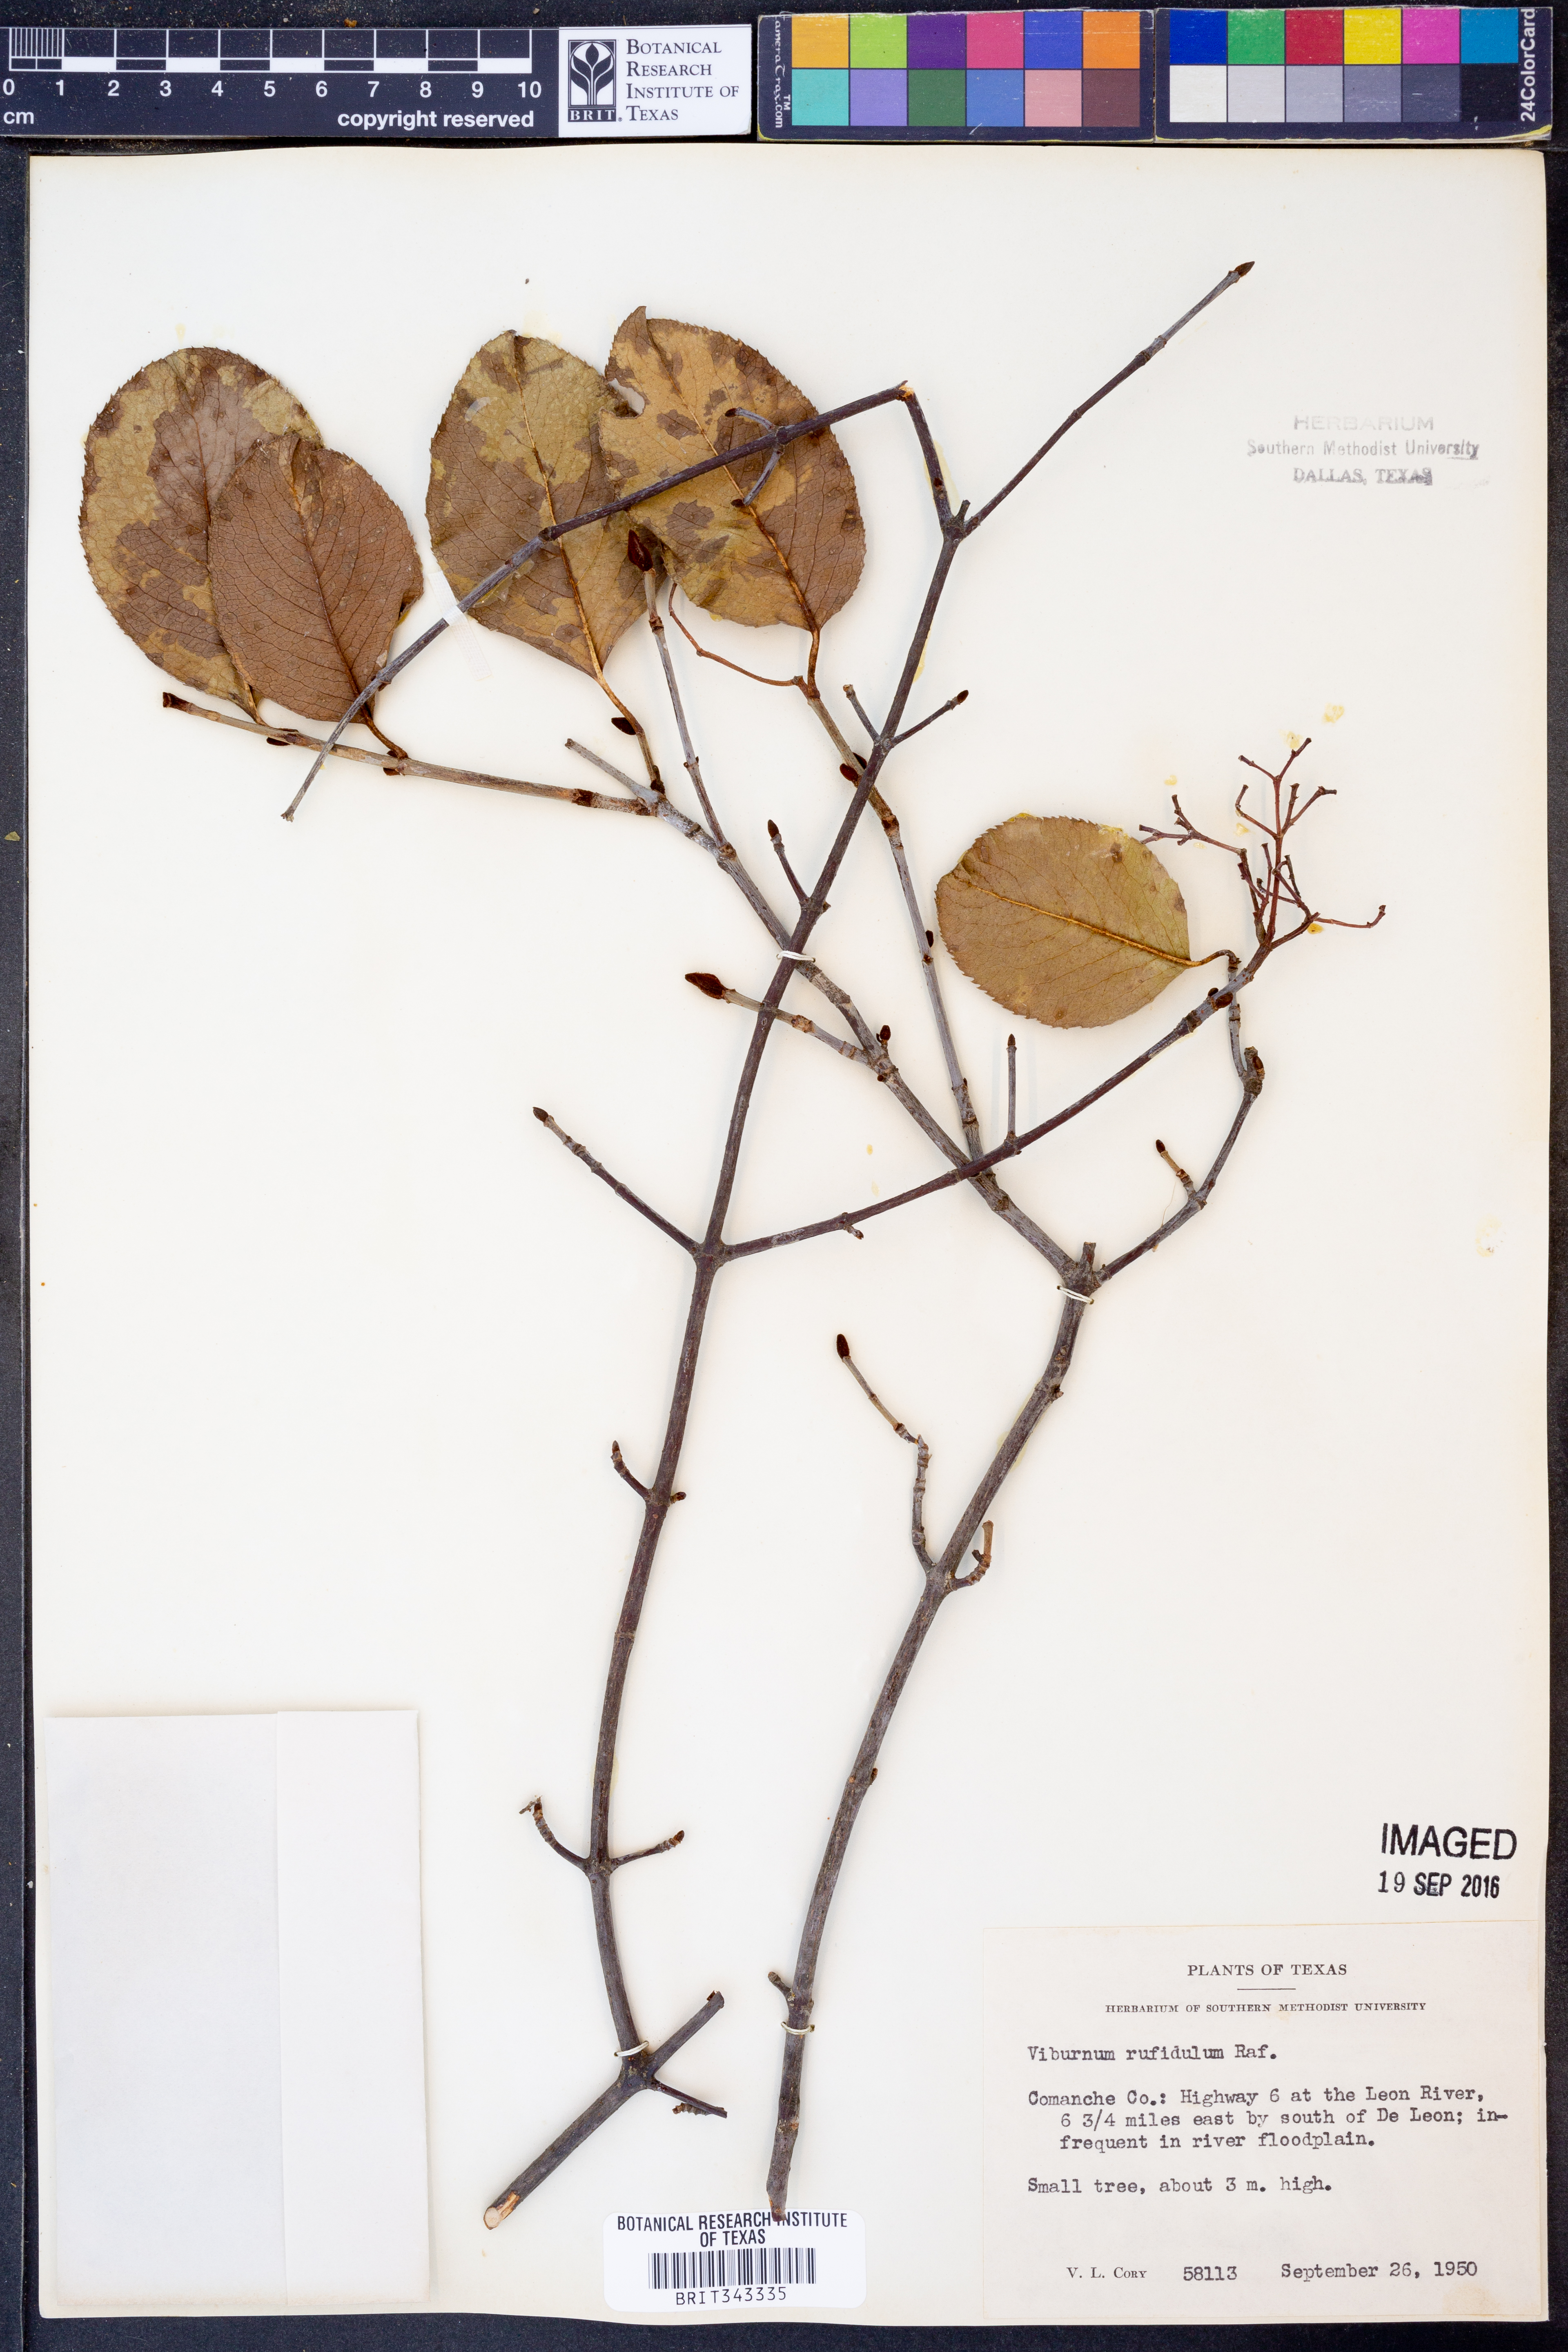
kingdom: Plantae
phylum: Tracheophyta
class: Magnoliopsida
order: Dipsacales
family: Viburnaceae
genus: Viburnum
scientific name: Viburnum rufidulum
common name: Blue haw
